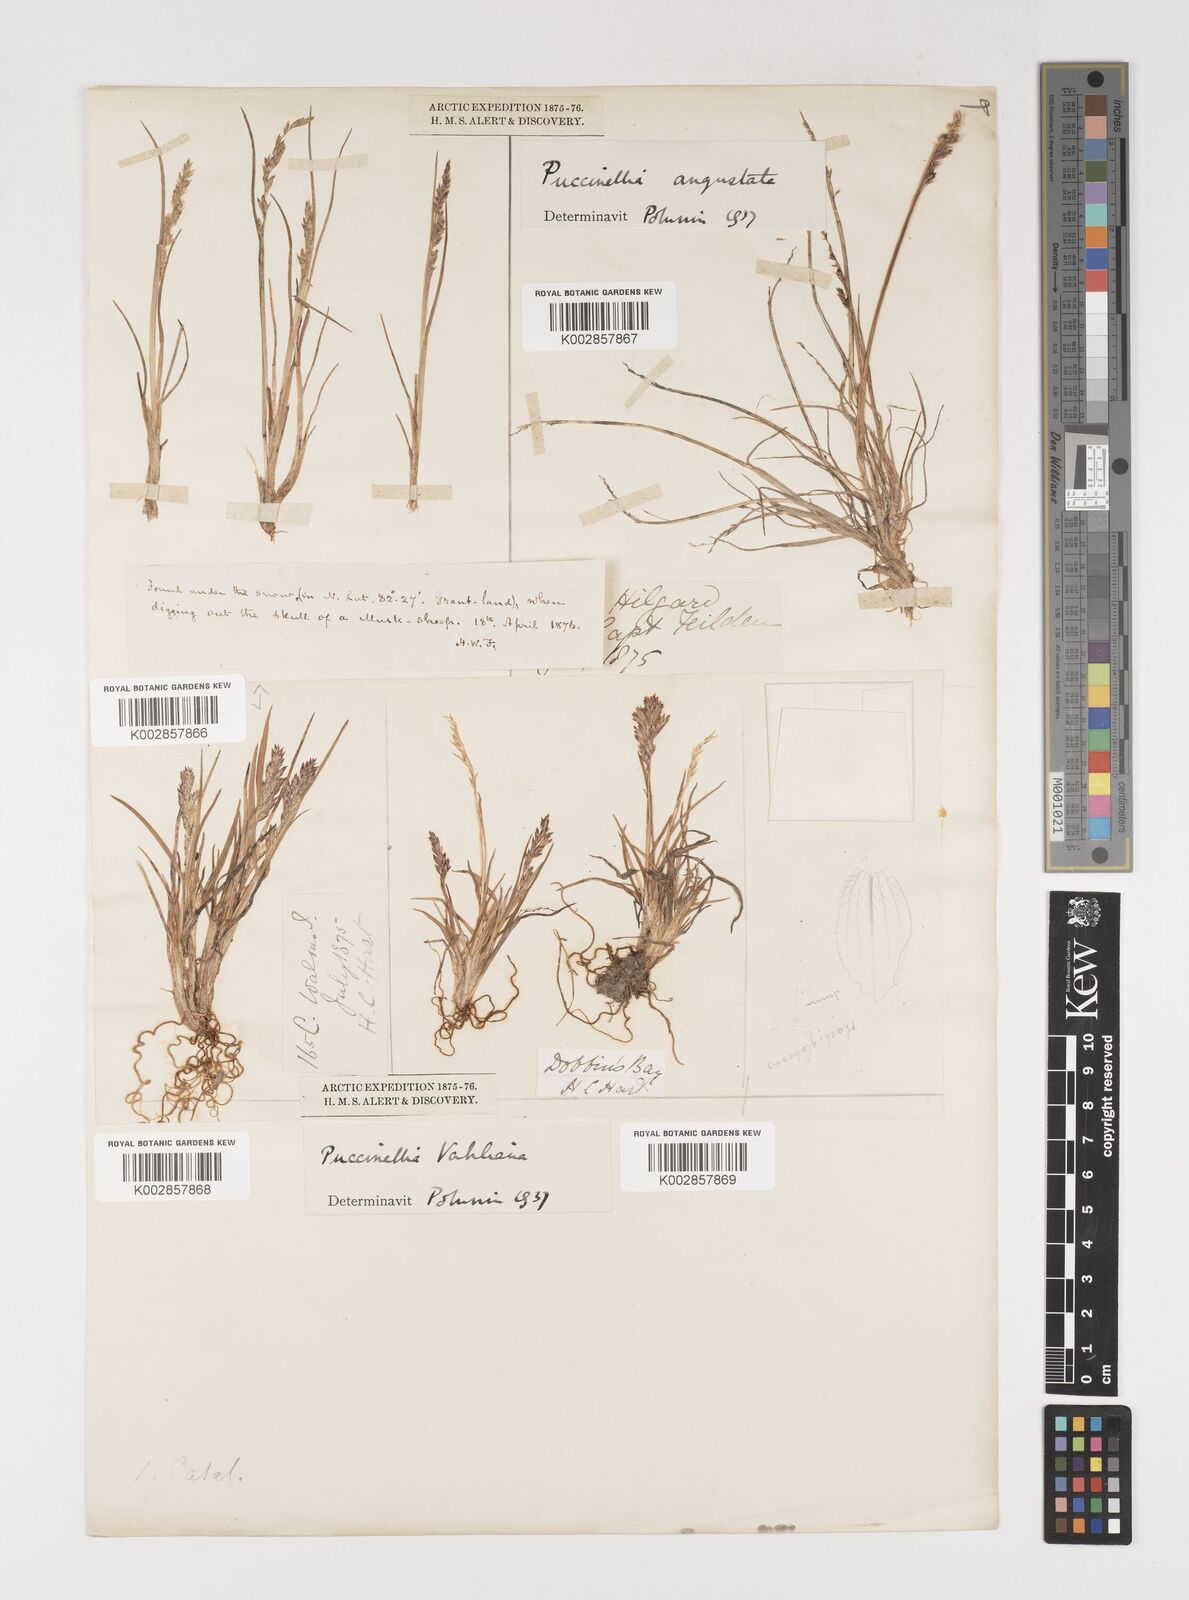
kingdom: Plantae
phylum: Tracheophyta
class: Liliopsida
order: Poales
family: Poaceae
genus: Puccinellia
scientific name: Puccinellia vahliana
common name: Vahl's alkaligrass
